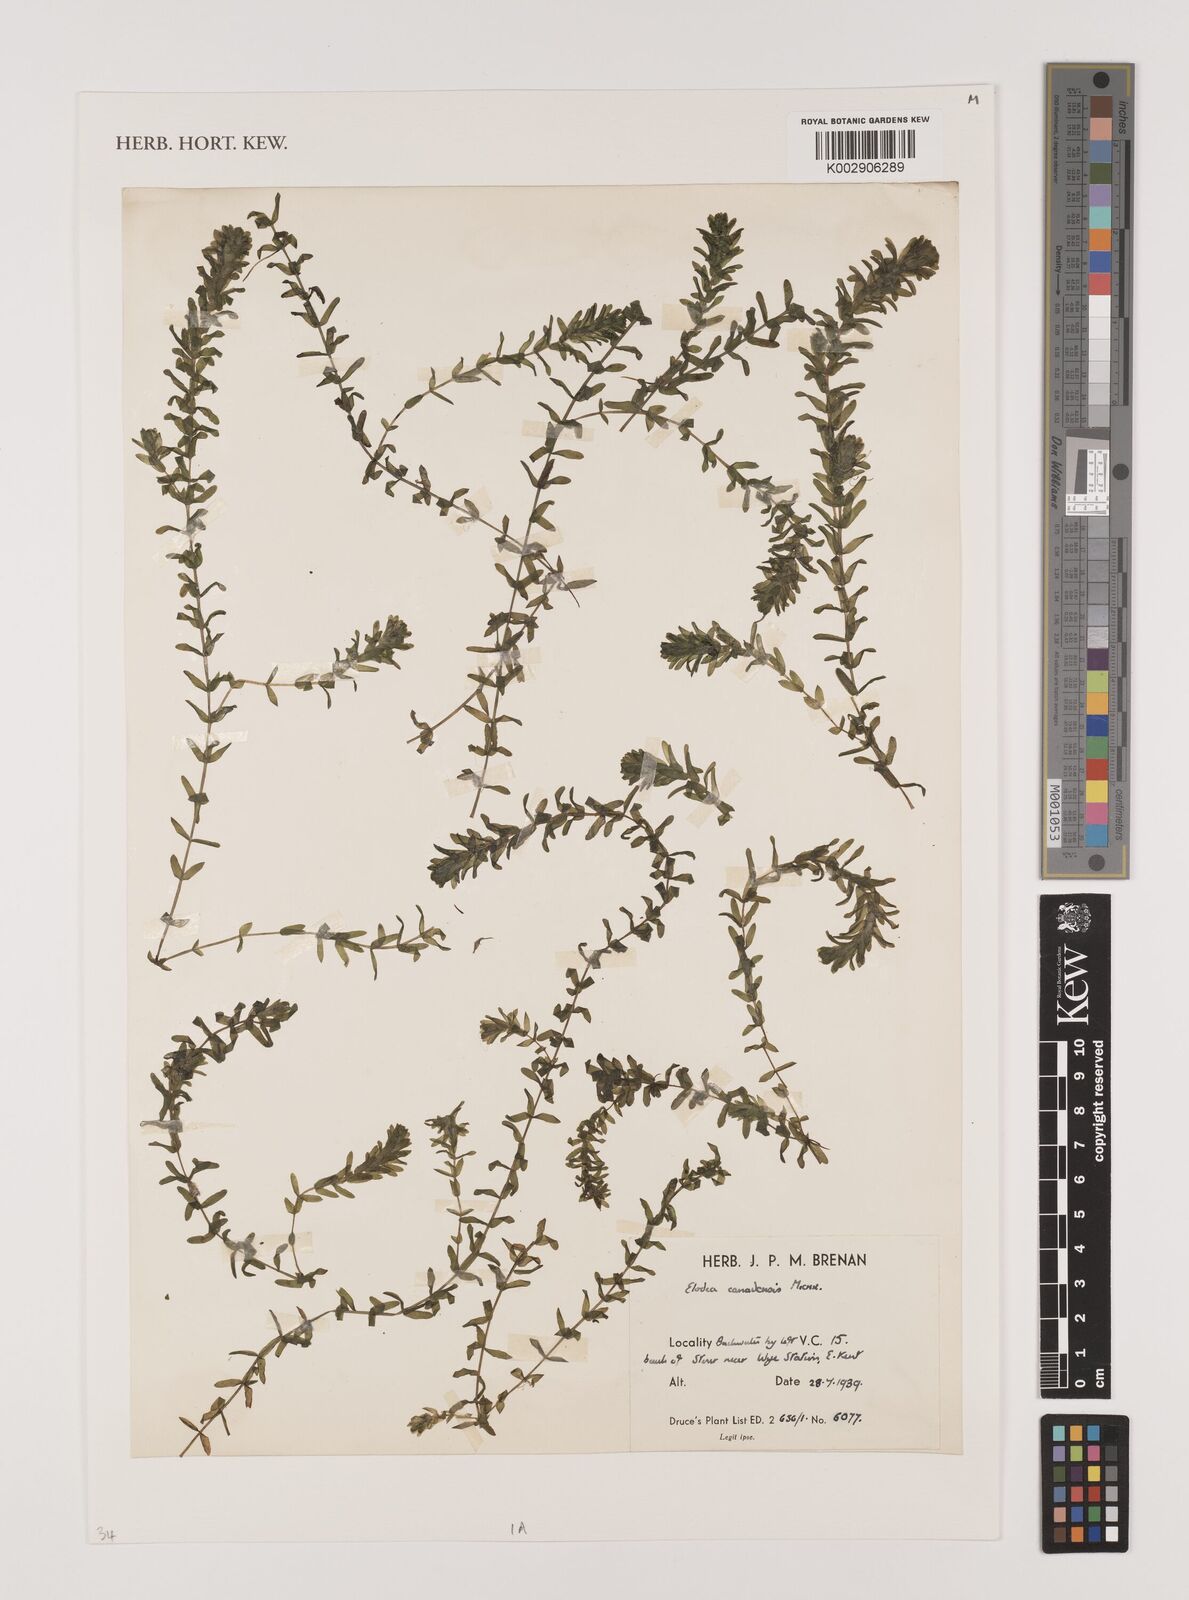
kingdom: Plantae
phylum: Tracheophyta
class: Liliopsida
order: Alismatales
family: Hydrocharitaceae
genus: Elodea
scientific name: Elodea canadensis
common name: Canadian waterweed
